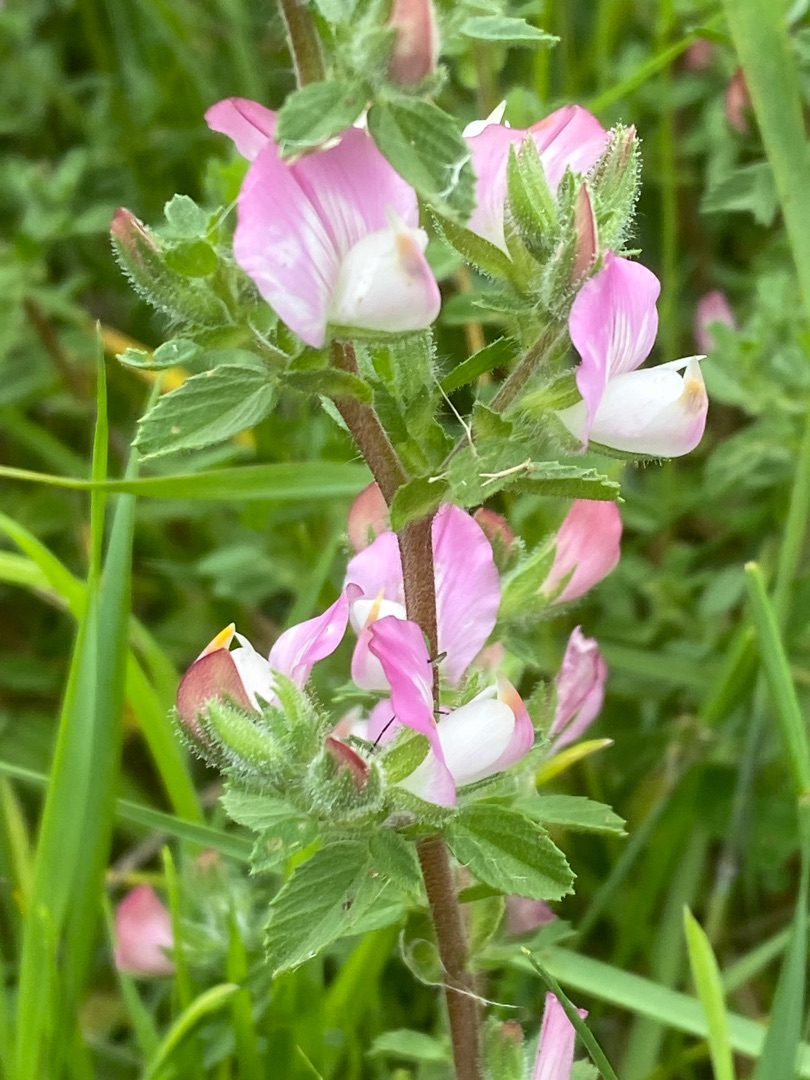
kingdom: Plantae
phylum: Tracheophyta
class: Magnoliopsida
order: Fabales
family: Fabaceae
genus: Ononis
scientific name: Ononis spinosa
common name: Mark-krageklo
